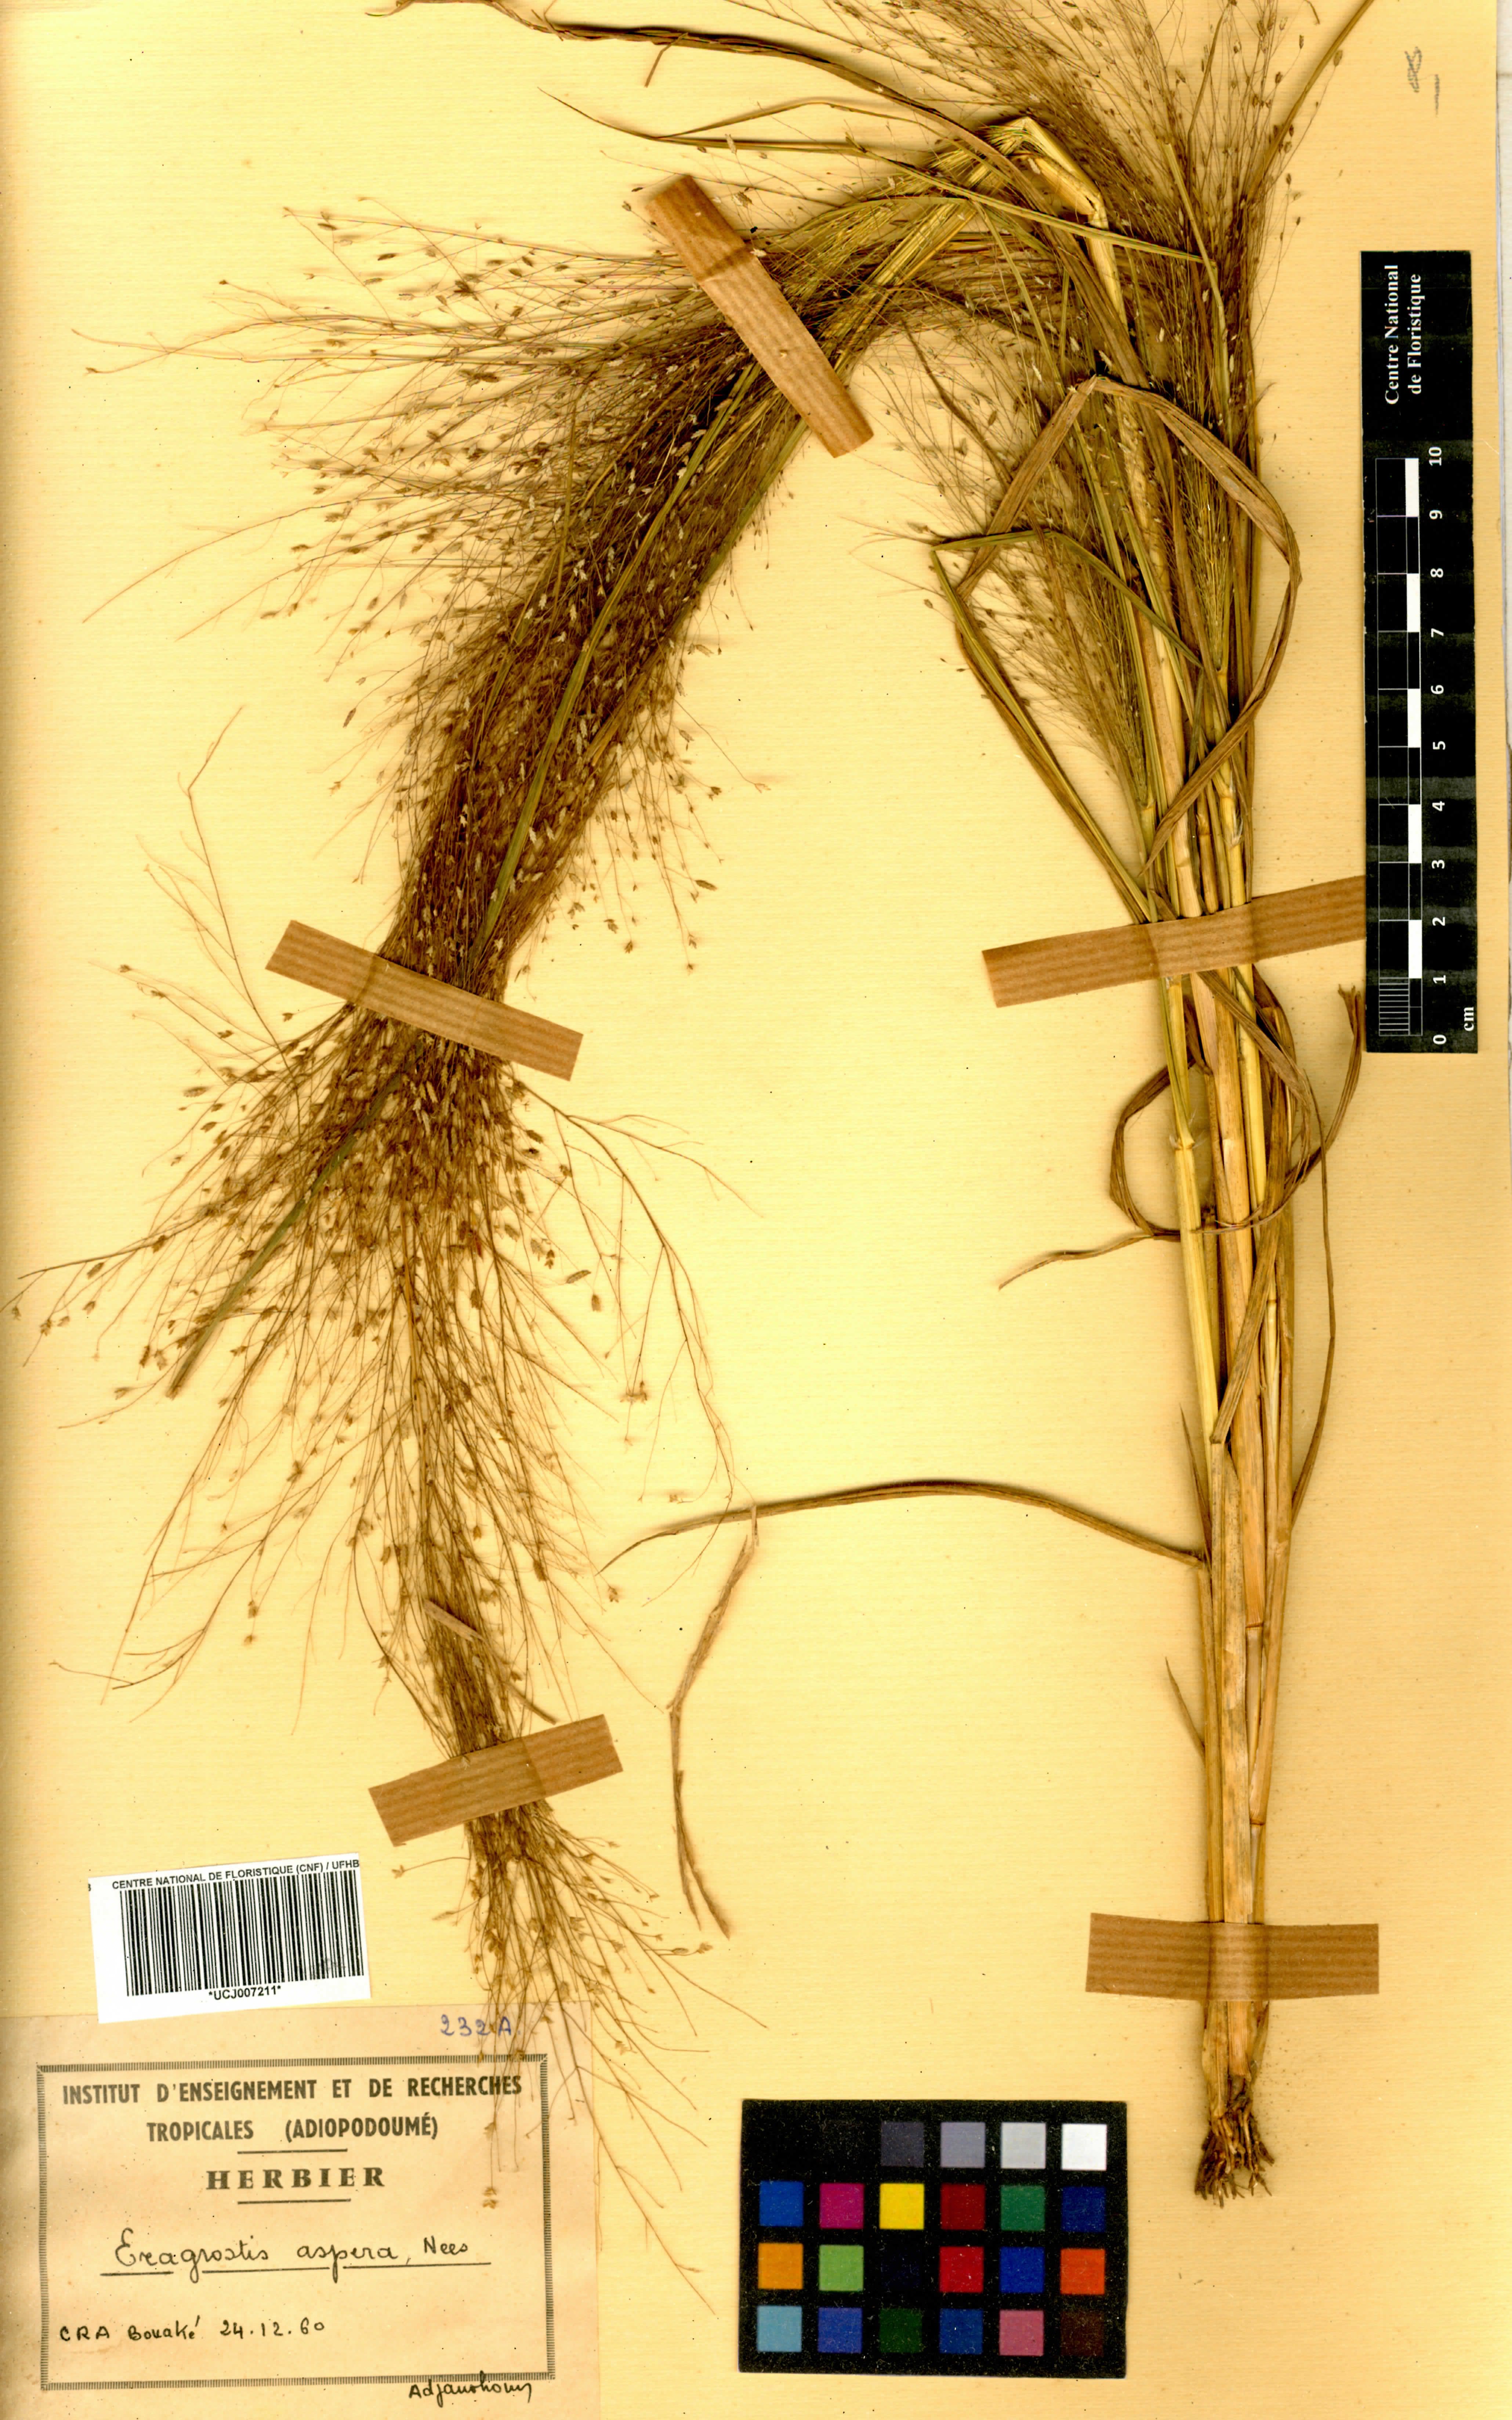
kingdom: Plantae
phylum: Tracheophyta
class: Liliopsida
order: Poales
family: Poaceae
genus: Eragrostis
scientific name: Eragrostis aspera
